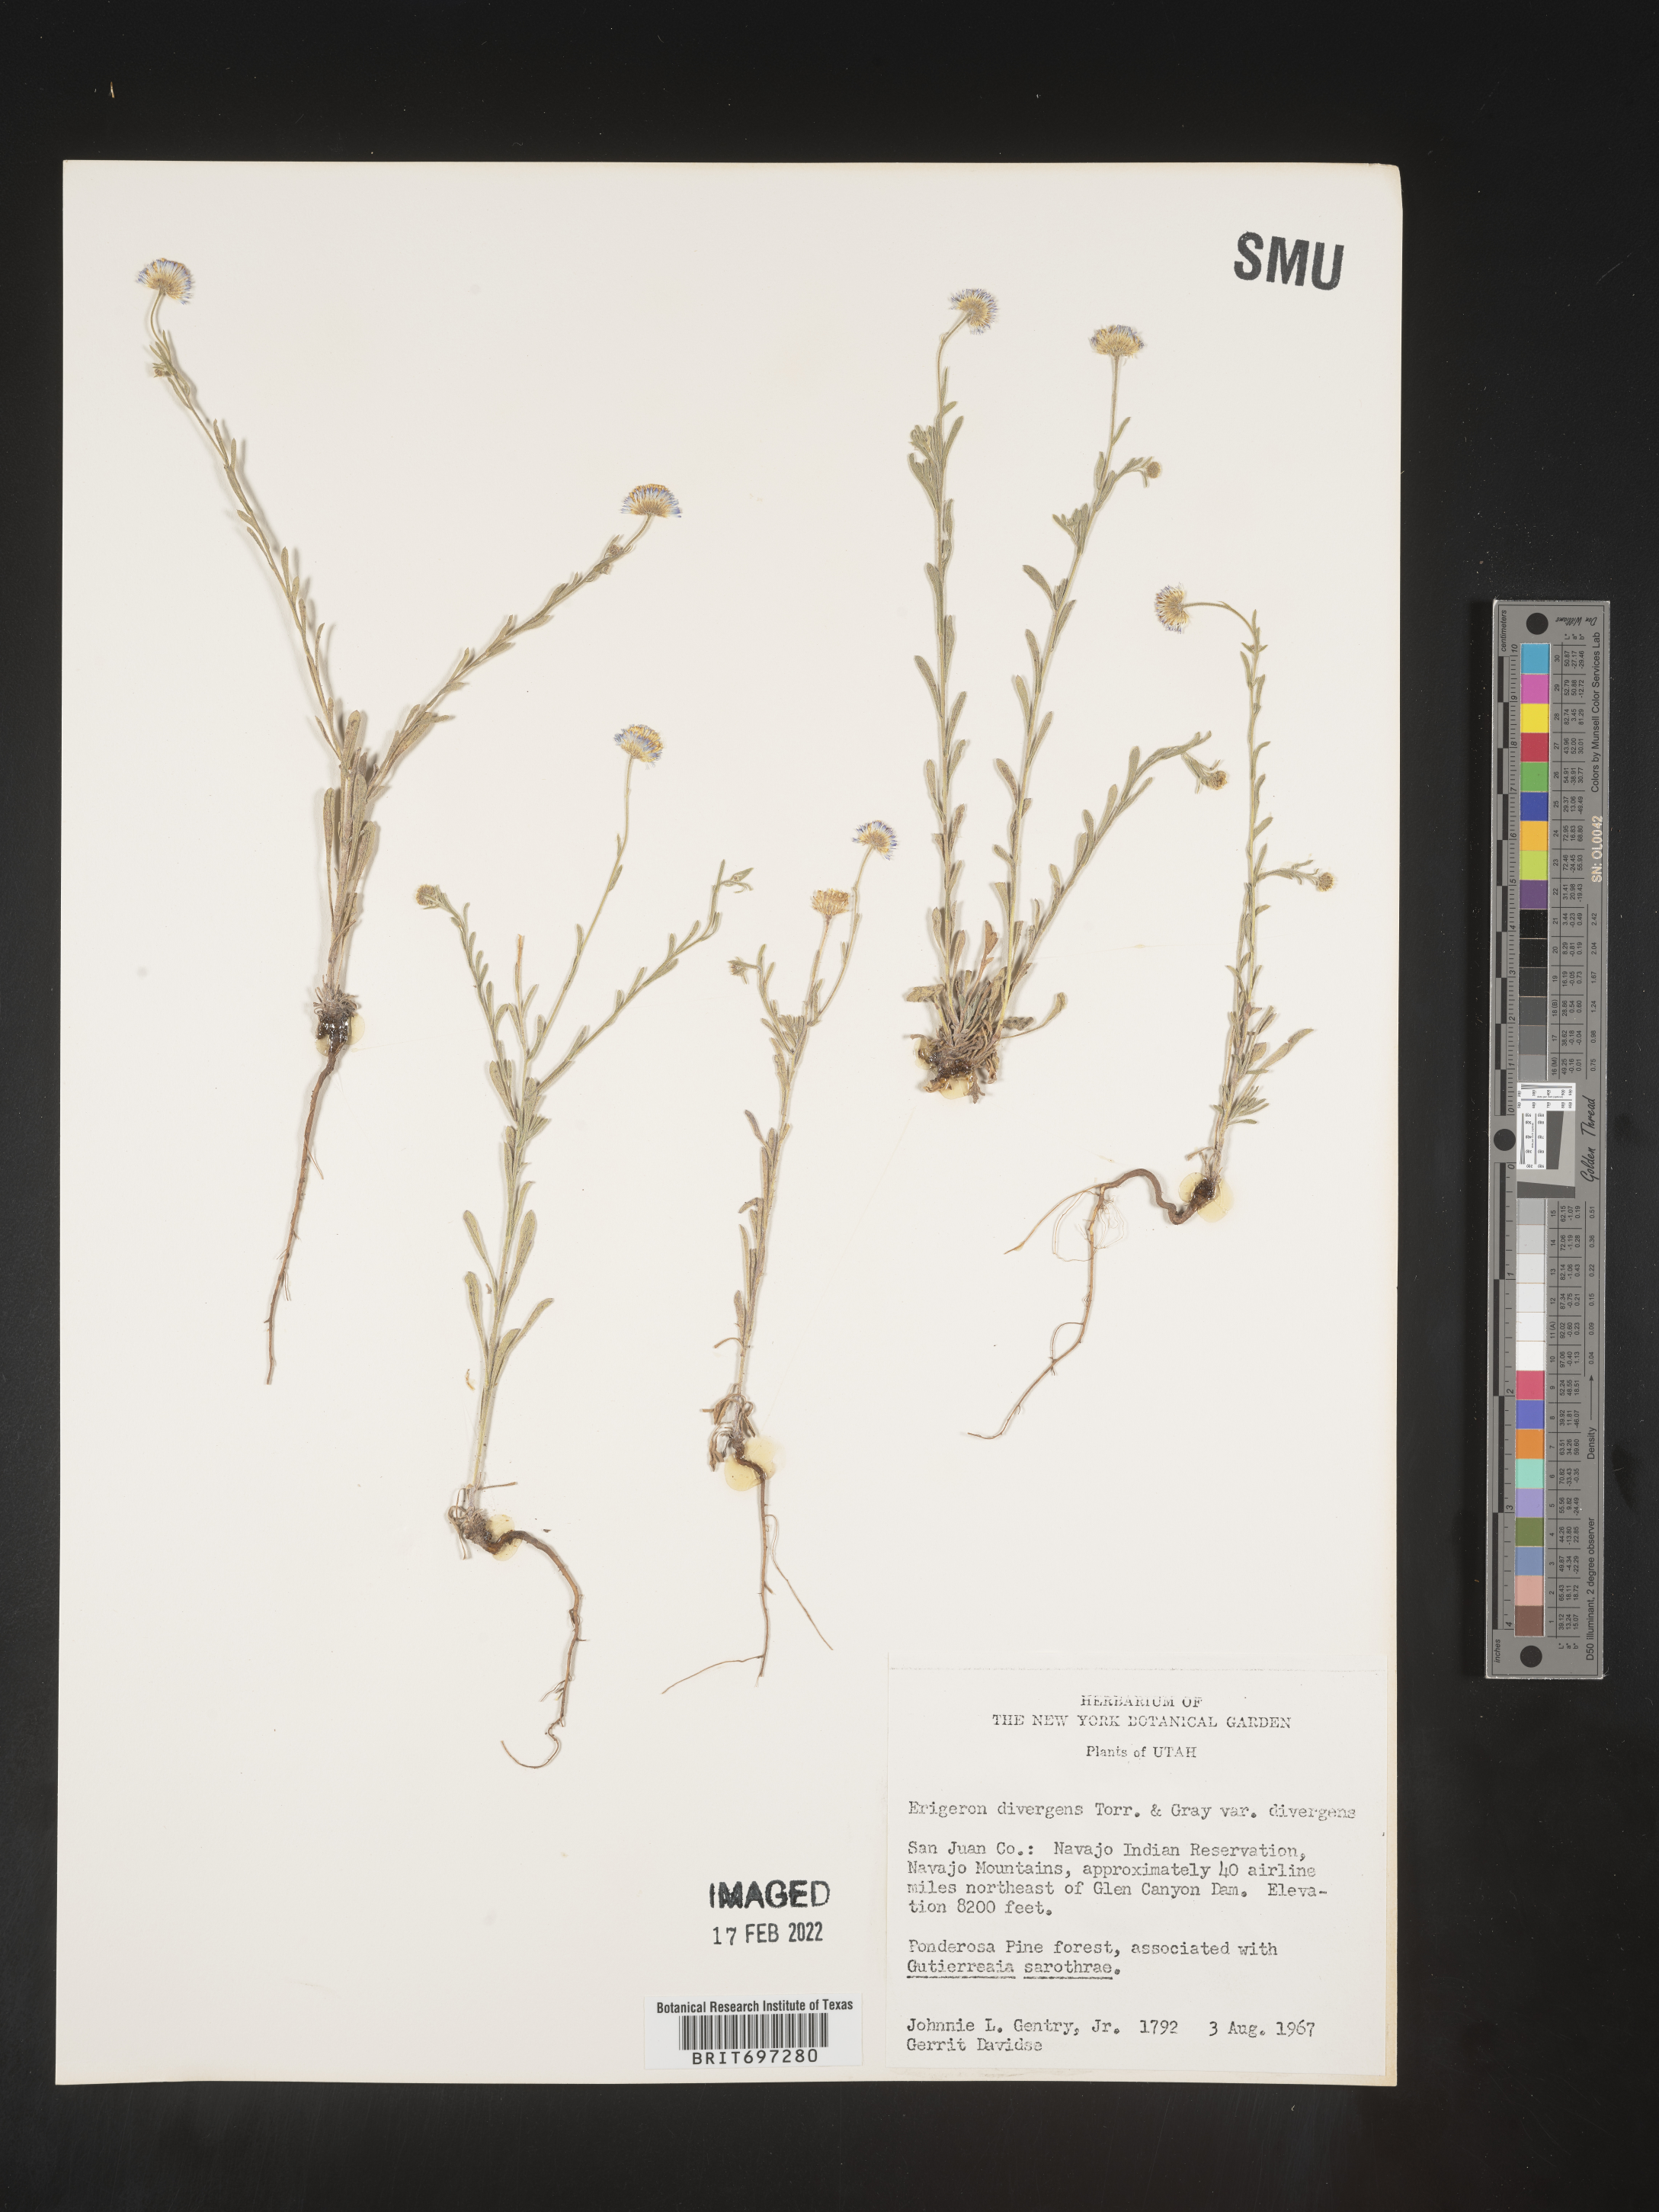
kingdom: Plantae
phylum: Tracheophyta
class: Magnoliopsida
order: Asterales
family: Asteraceae
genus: Erigeron
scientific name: Erigeron divergens
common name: Diffuse fleabane
